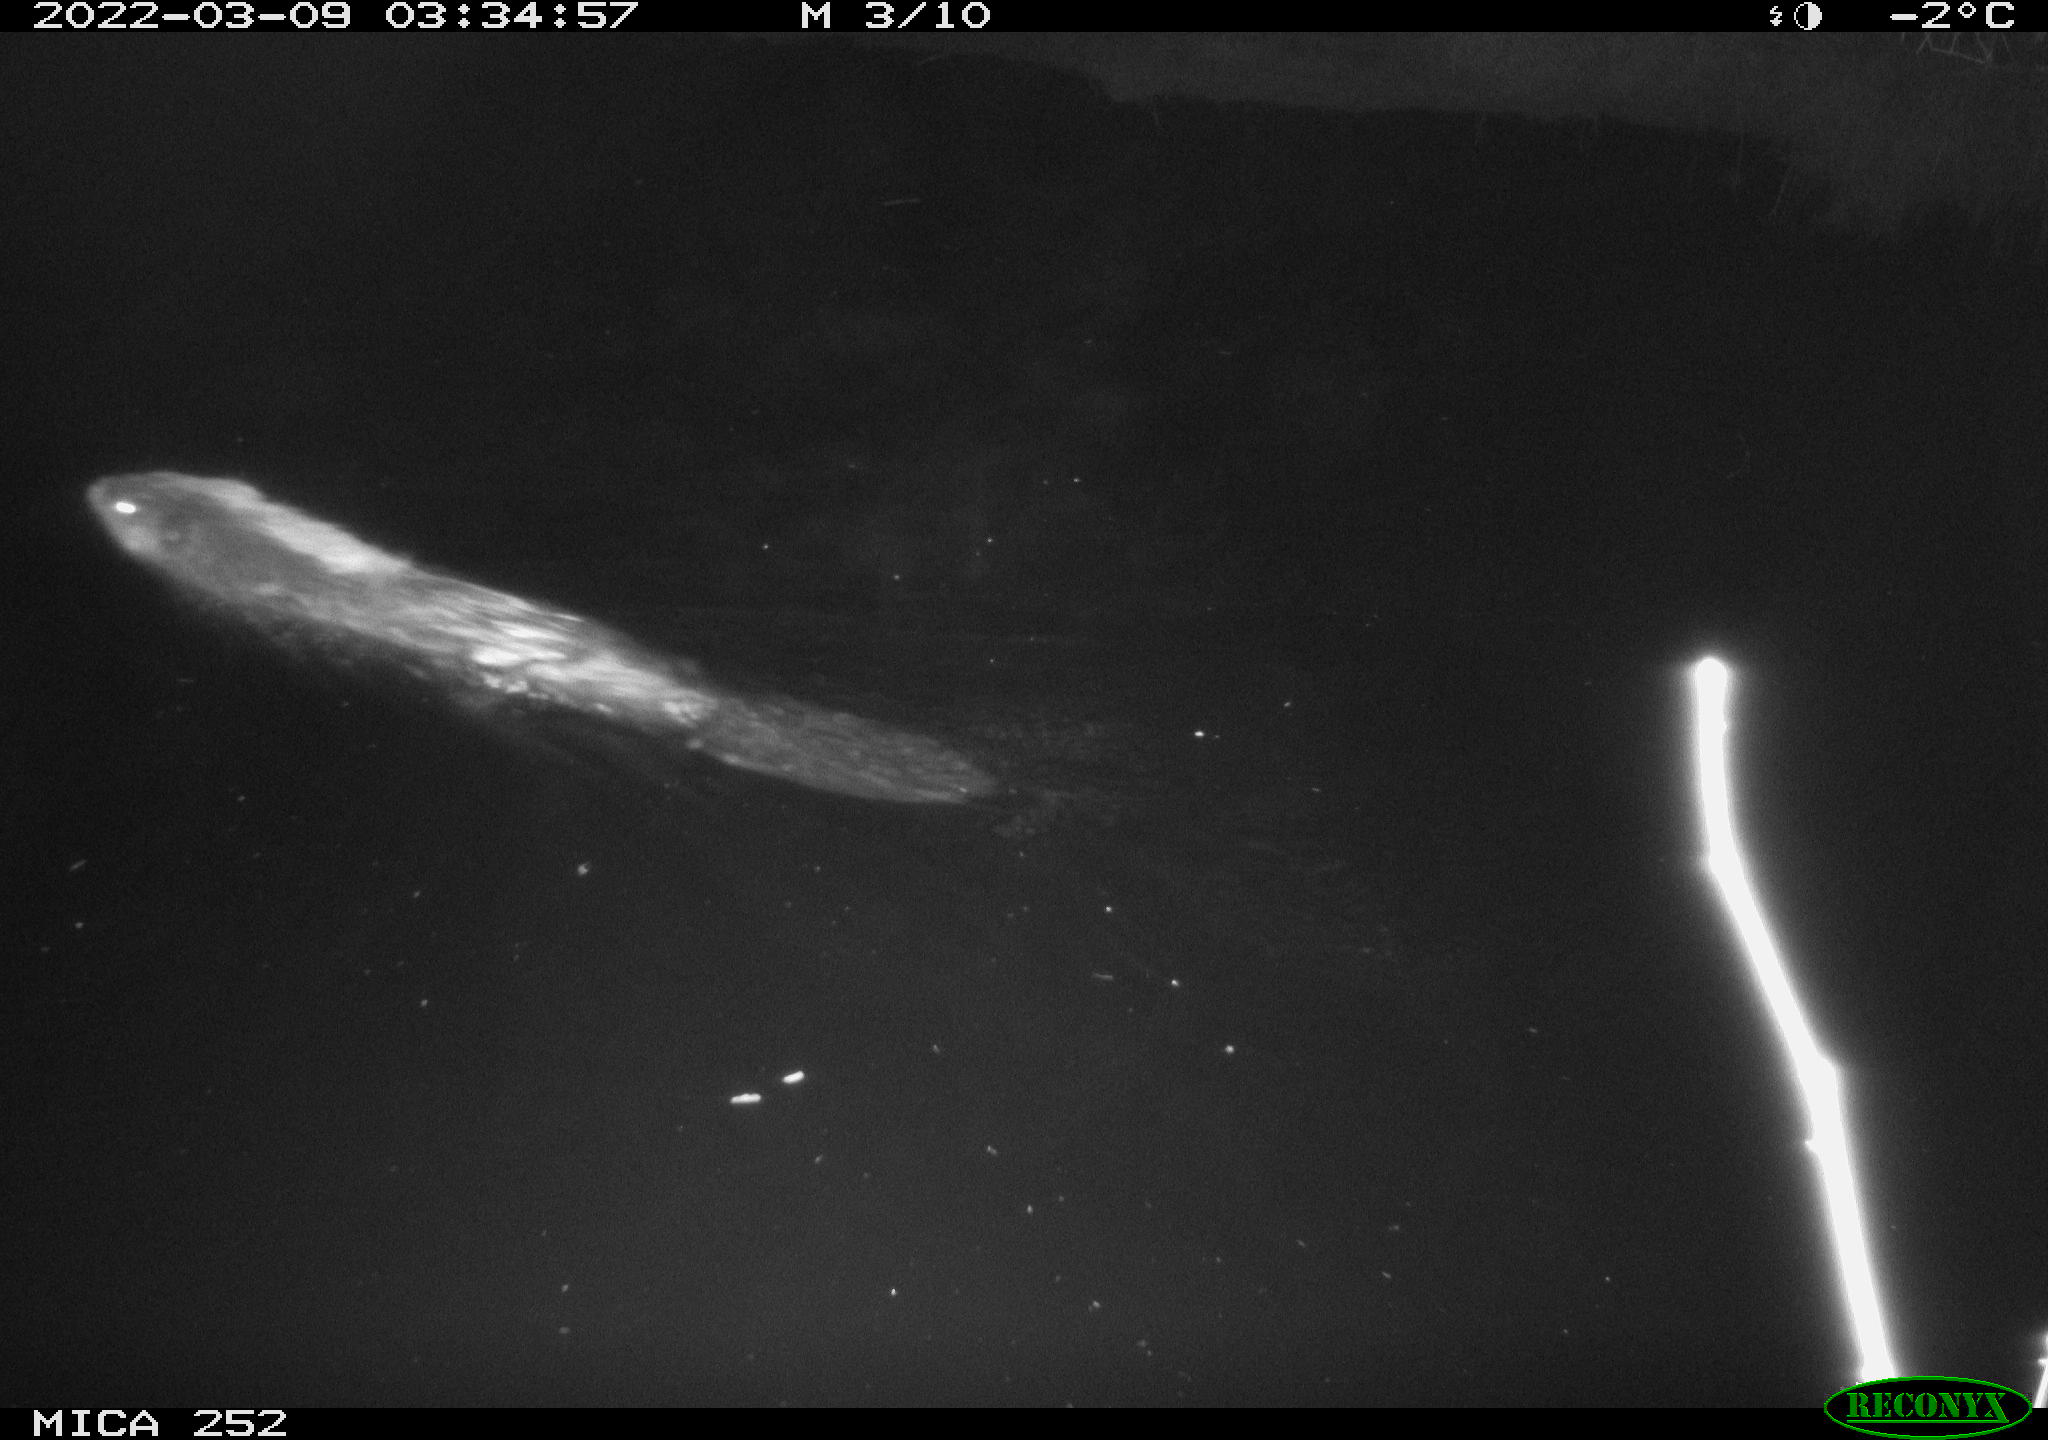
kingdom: Animalia
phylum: Chordata
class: Mammalia
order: Rodentia
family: Castoridae
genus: Castor
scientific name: Castor fiber
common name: Eurasian beaver
